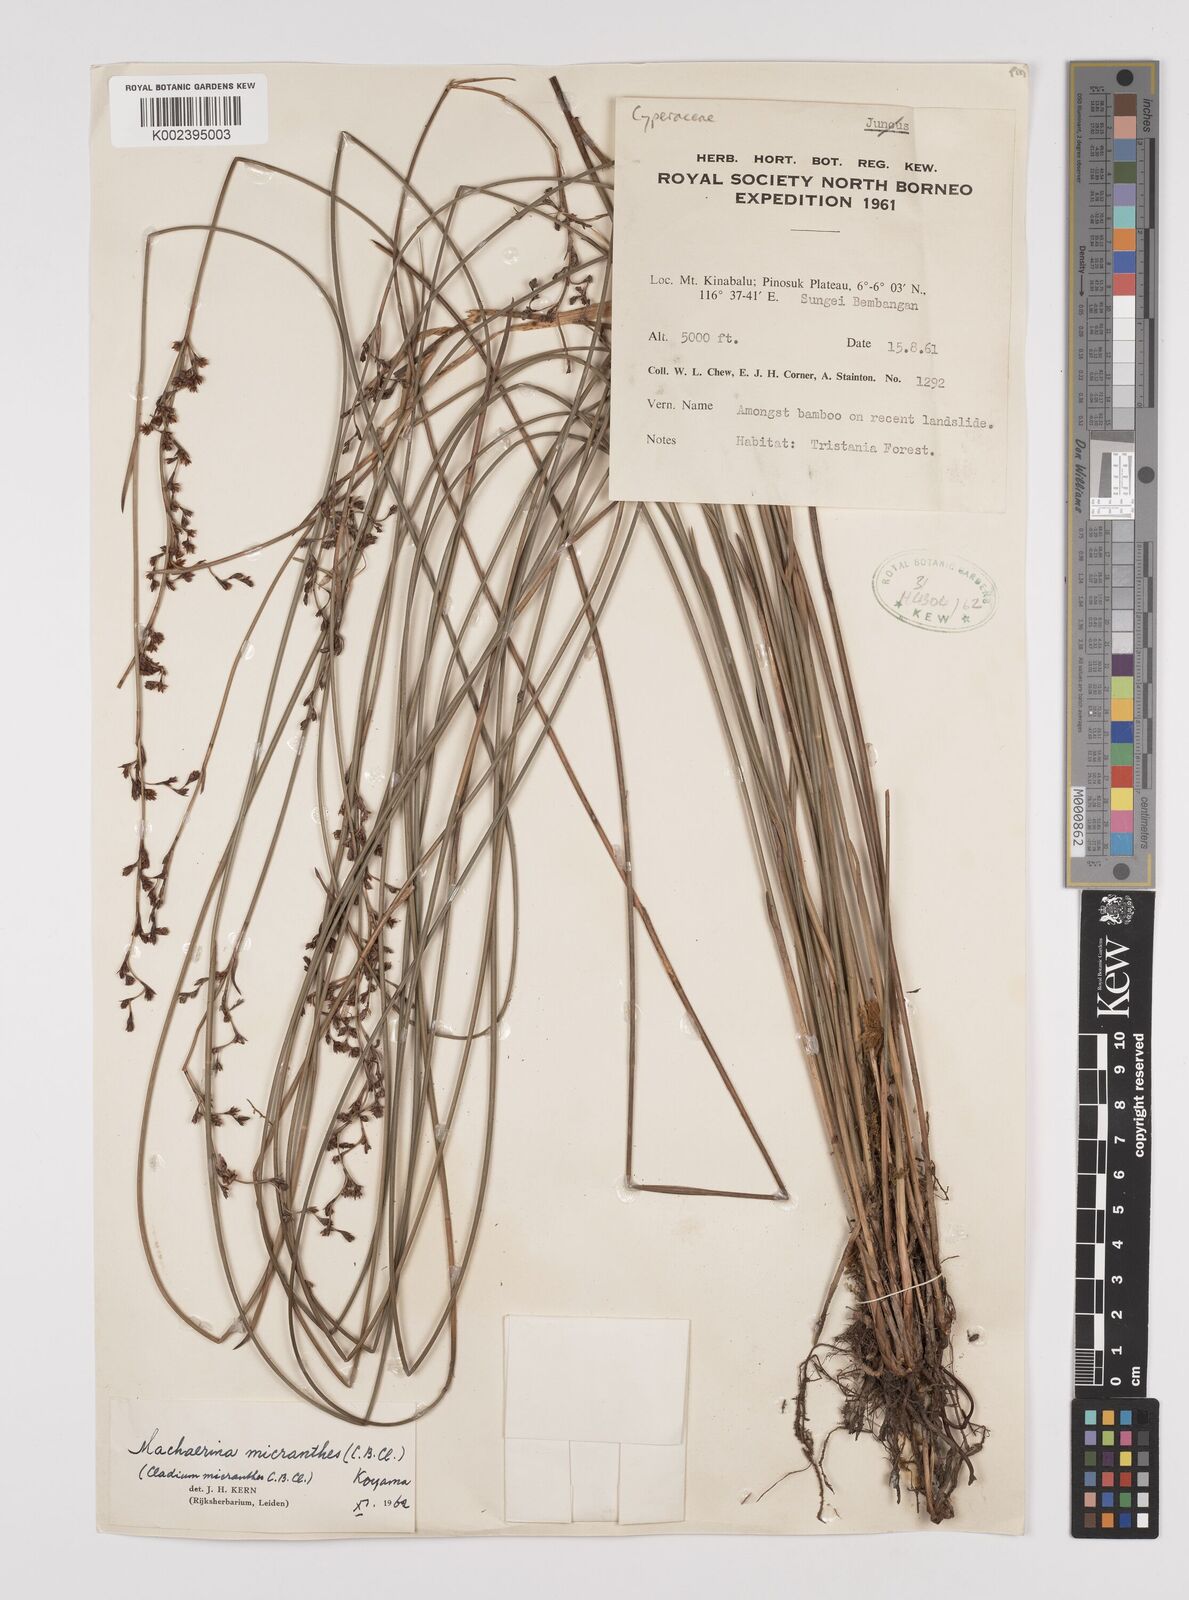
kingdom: Plantae
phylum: Tracheophyta
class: Liliopsida
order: Poales
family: Cyperaceae
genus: Machaerina
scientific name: Machaerina disticha
